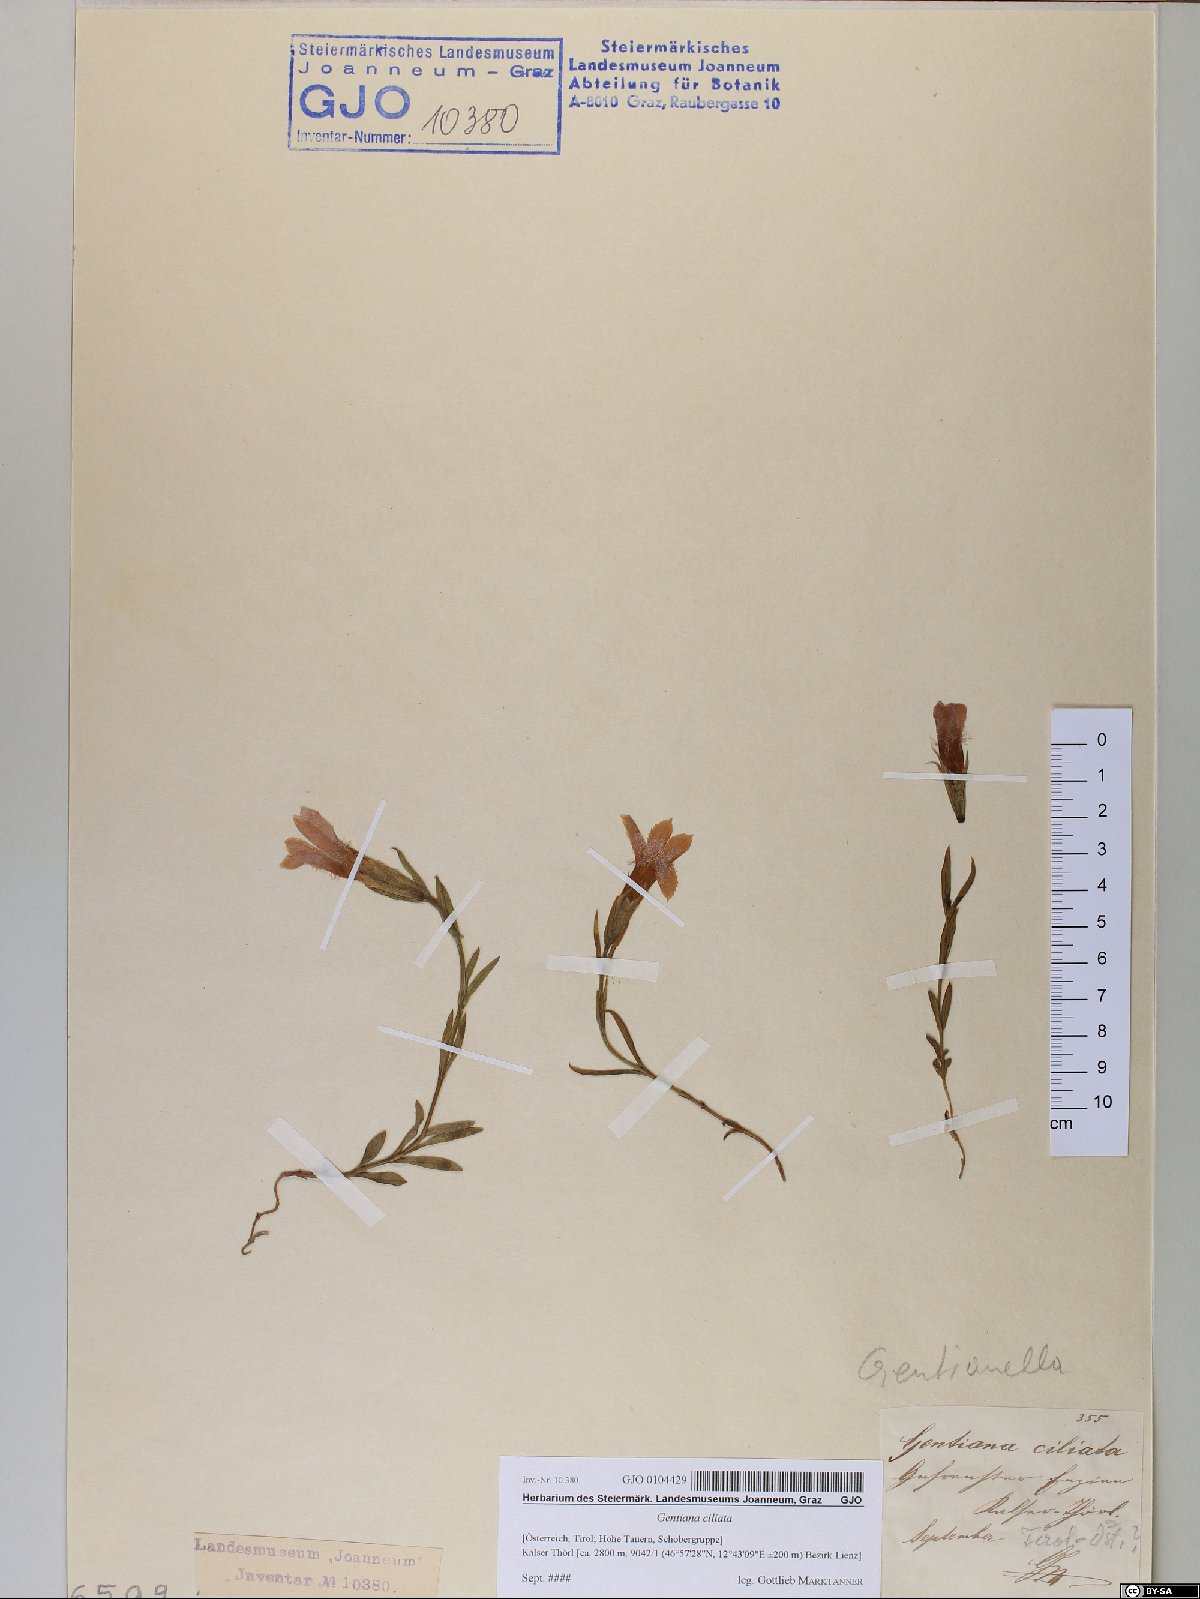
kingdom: Plantae
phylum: Tracheophyta
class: Magnoliopsida
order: Gentianales
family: Gentianaceae
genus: Gentianopsis
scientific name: Gentianopsis ciliata
